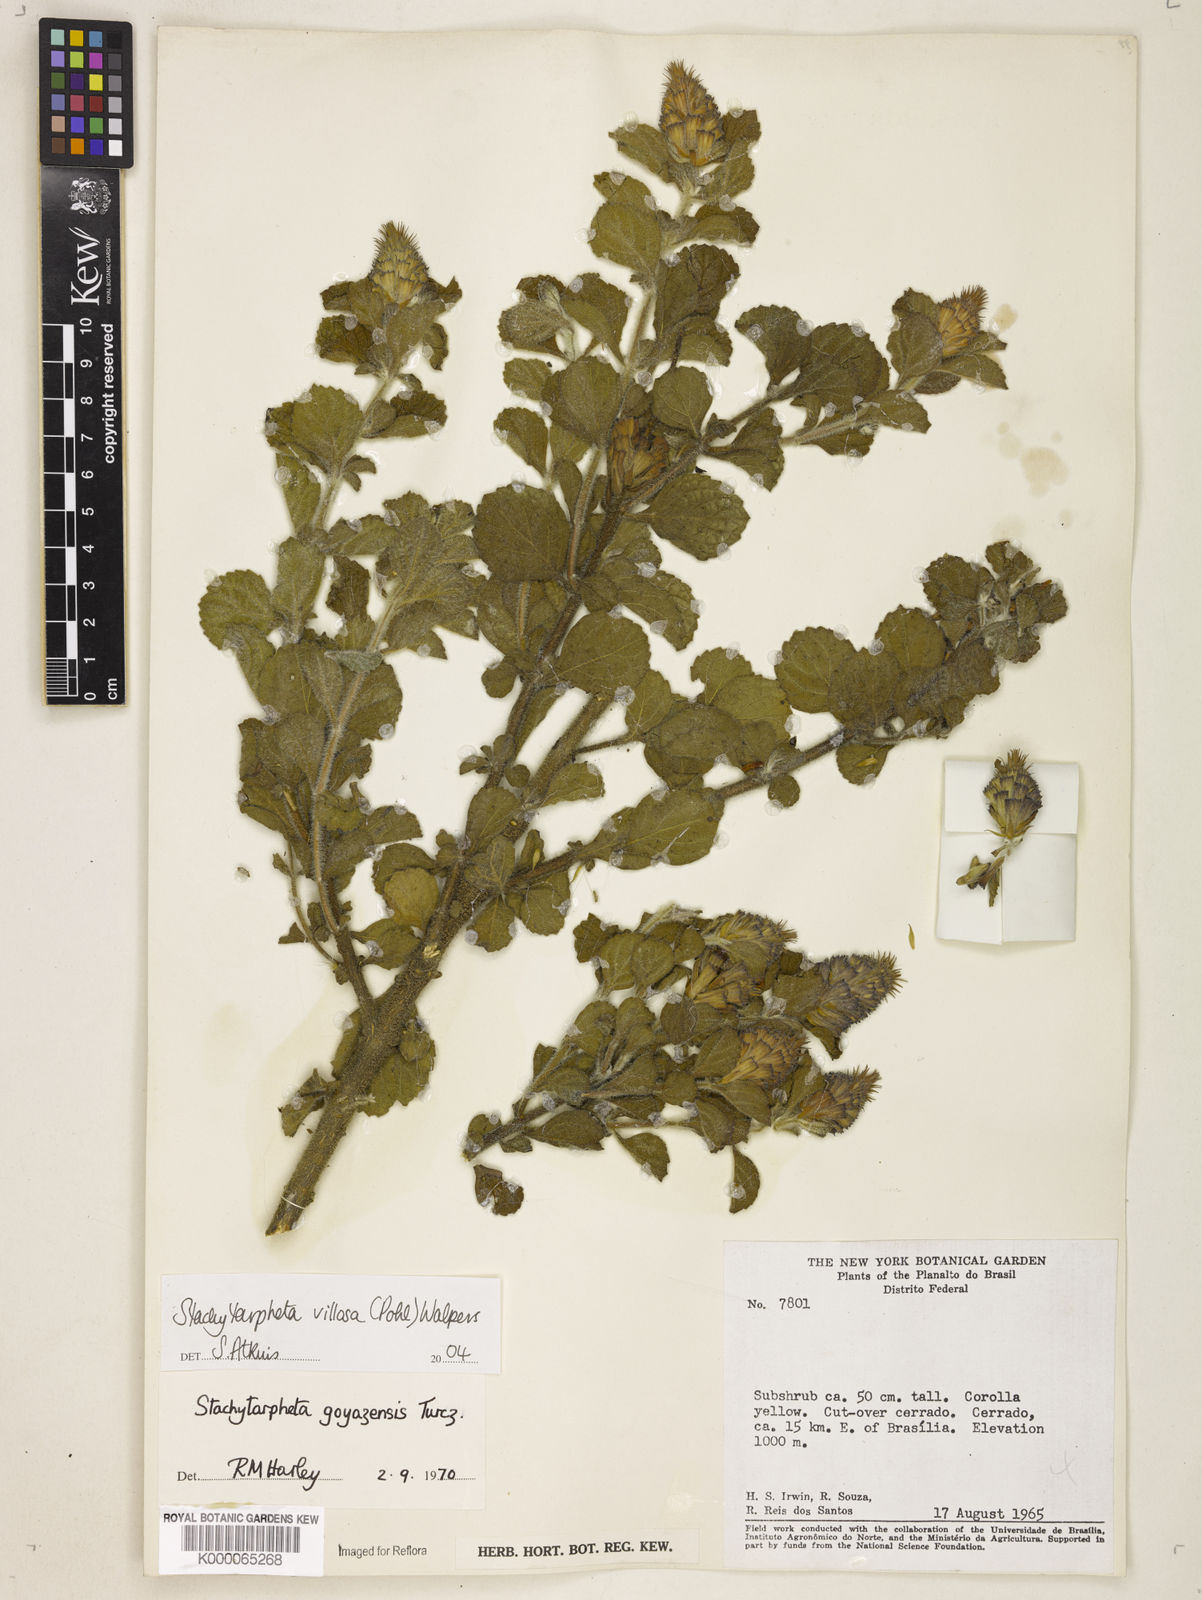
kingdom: Plantae
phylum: Tracheophyta
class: Magnoliopsida
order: Lamiales
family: Verbenaceae
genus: Stachytarpheta
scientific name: Stachytarpheta villosa
